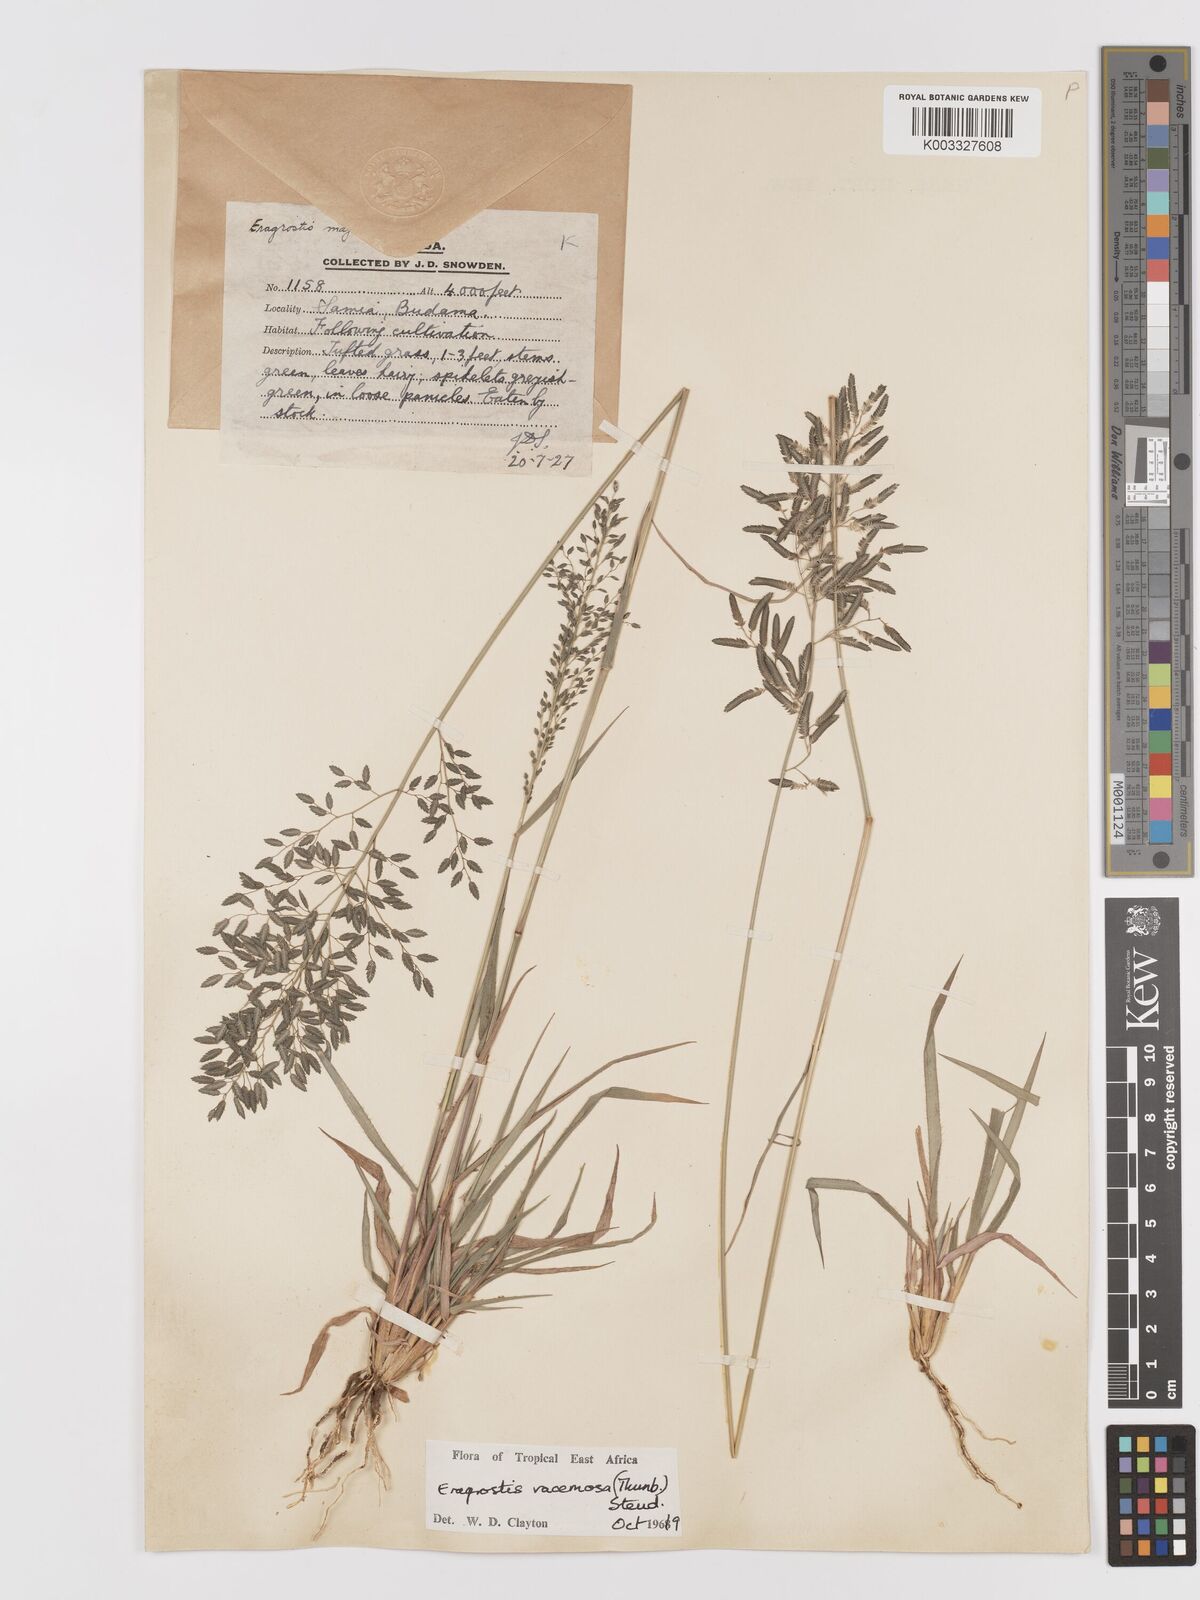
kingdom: Plantae
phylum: Tracheophyta
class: Liliopsida
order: Poales
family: Poaceae
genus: Eragrostis
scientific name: Eragrostis racemosa
